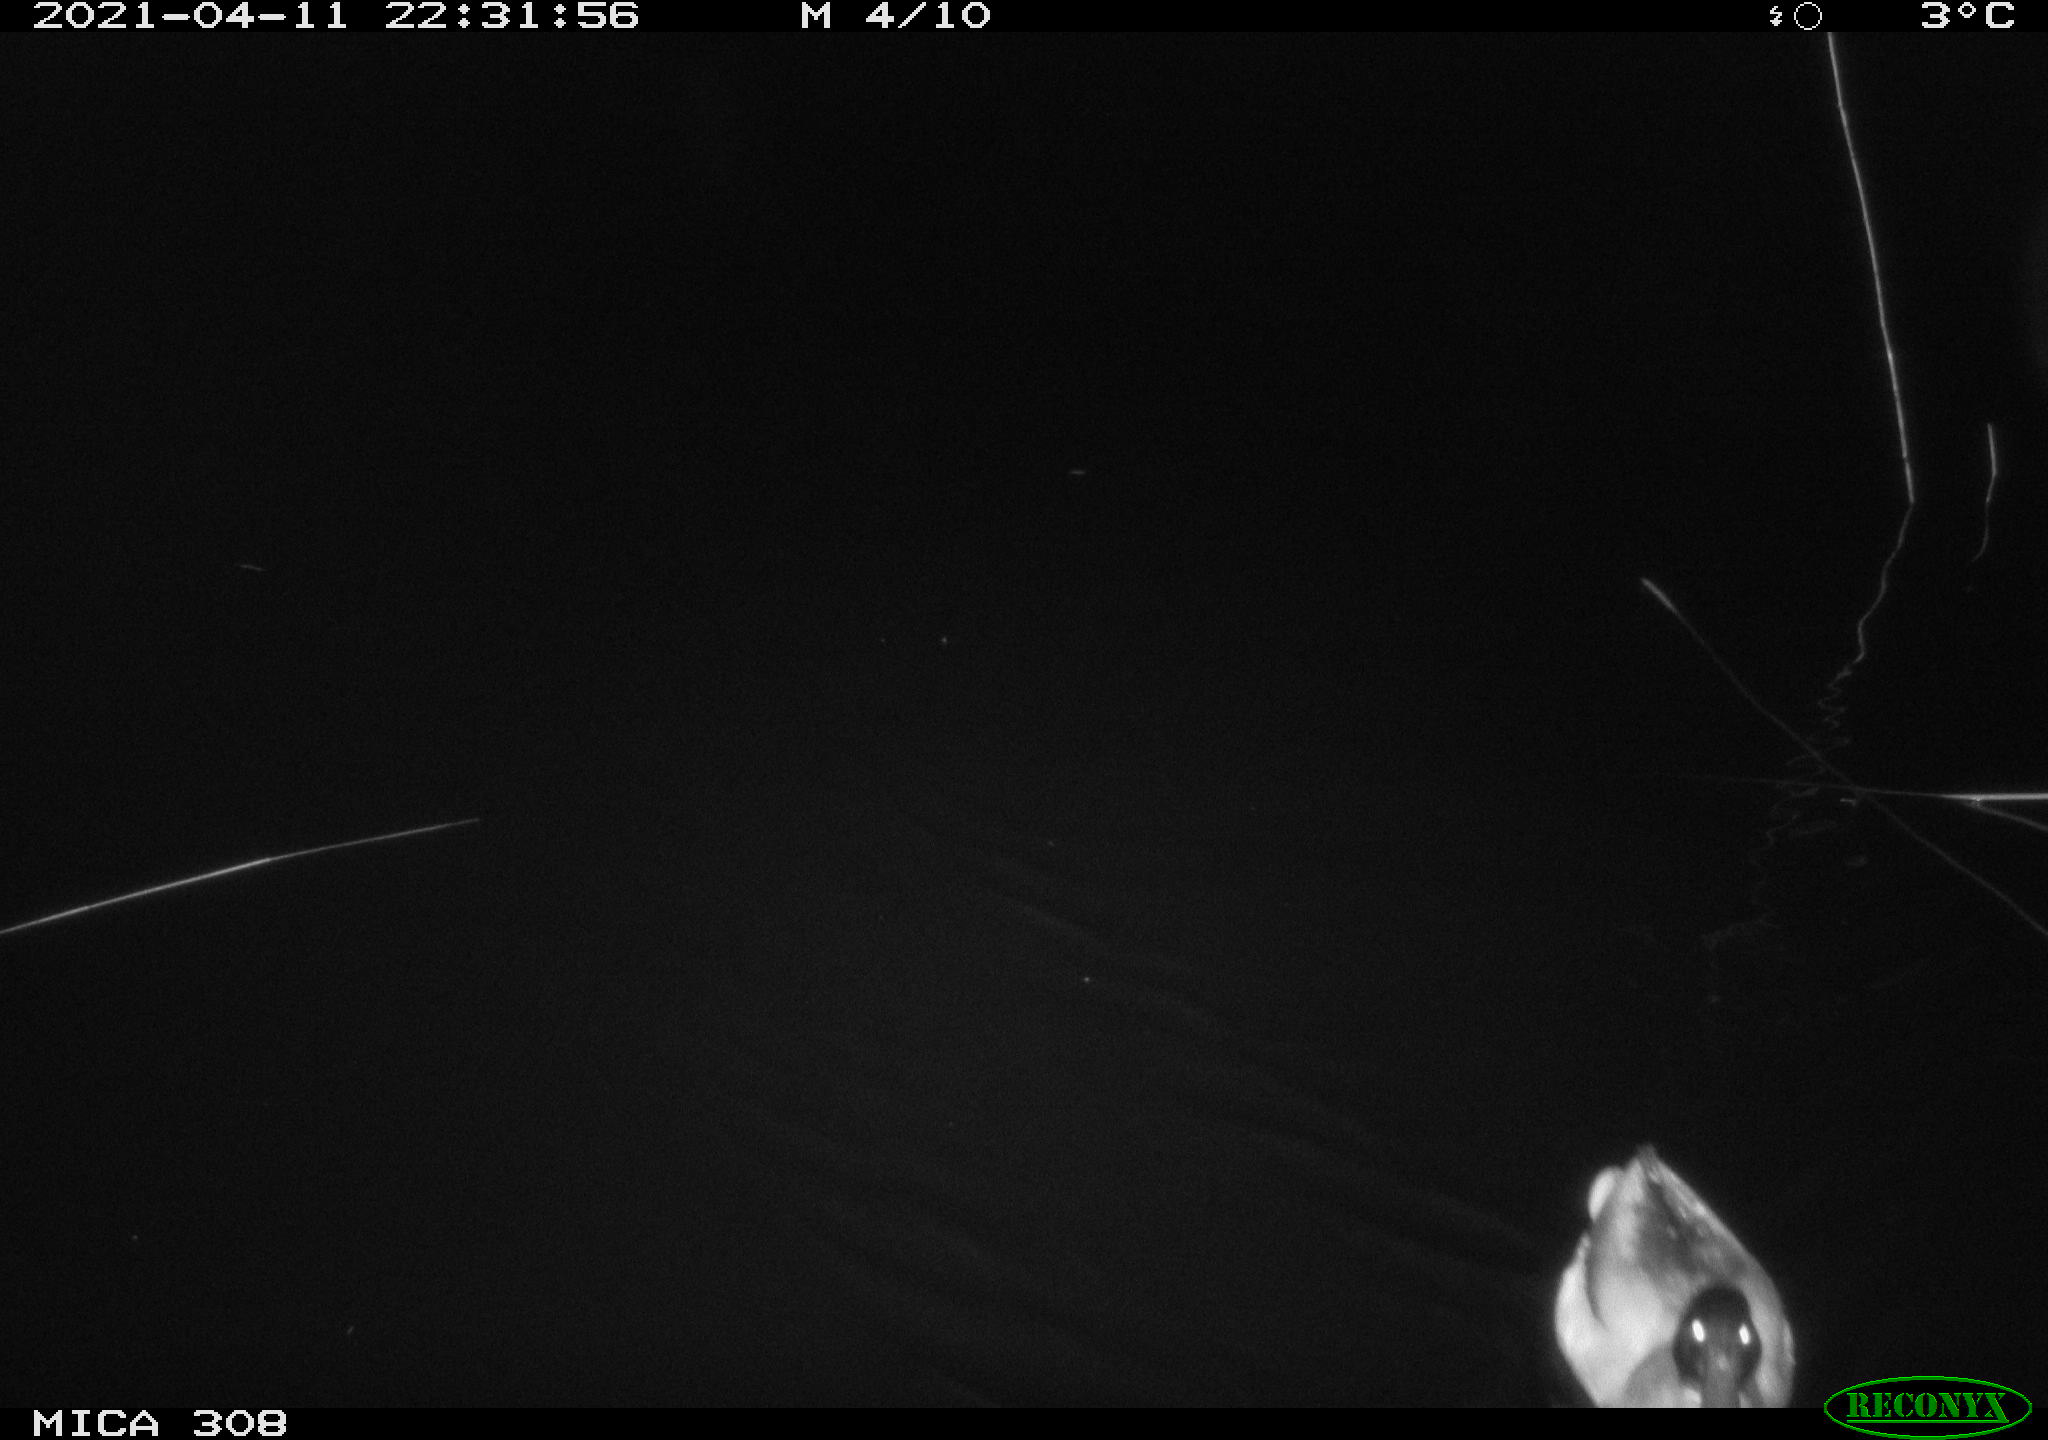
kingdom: Animalia
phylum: Chordata
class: Aves
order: Anseriformes
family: Anatidae
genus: Anas
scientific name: Anas platyrhynchos
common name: Mallard
